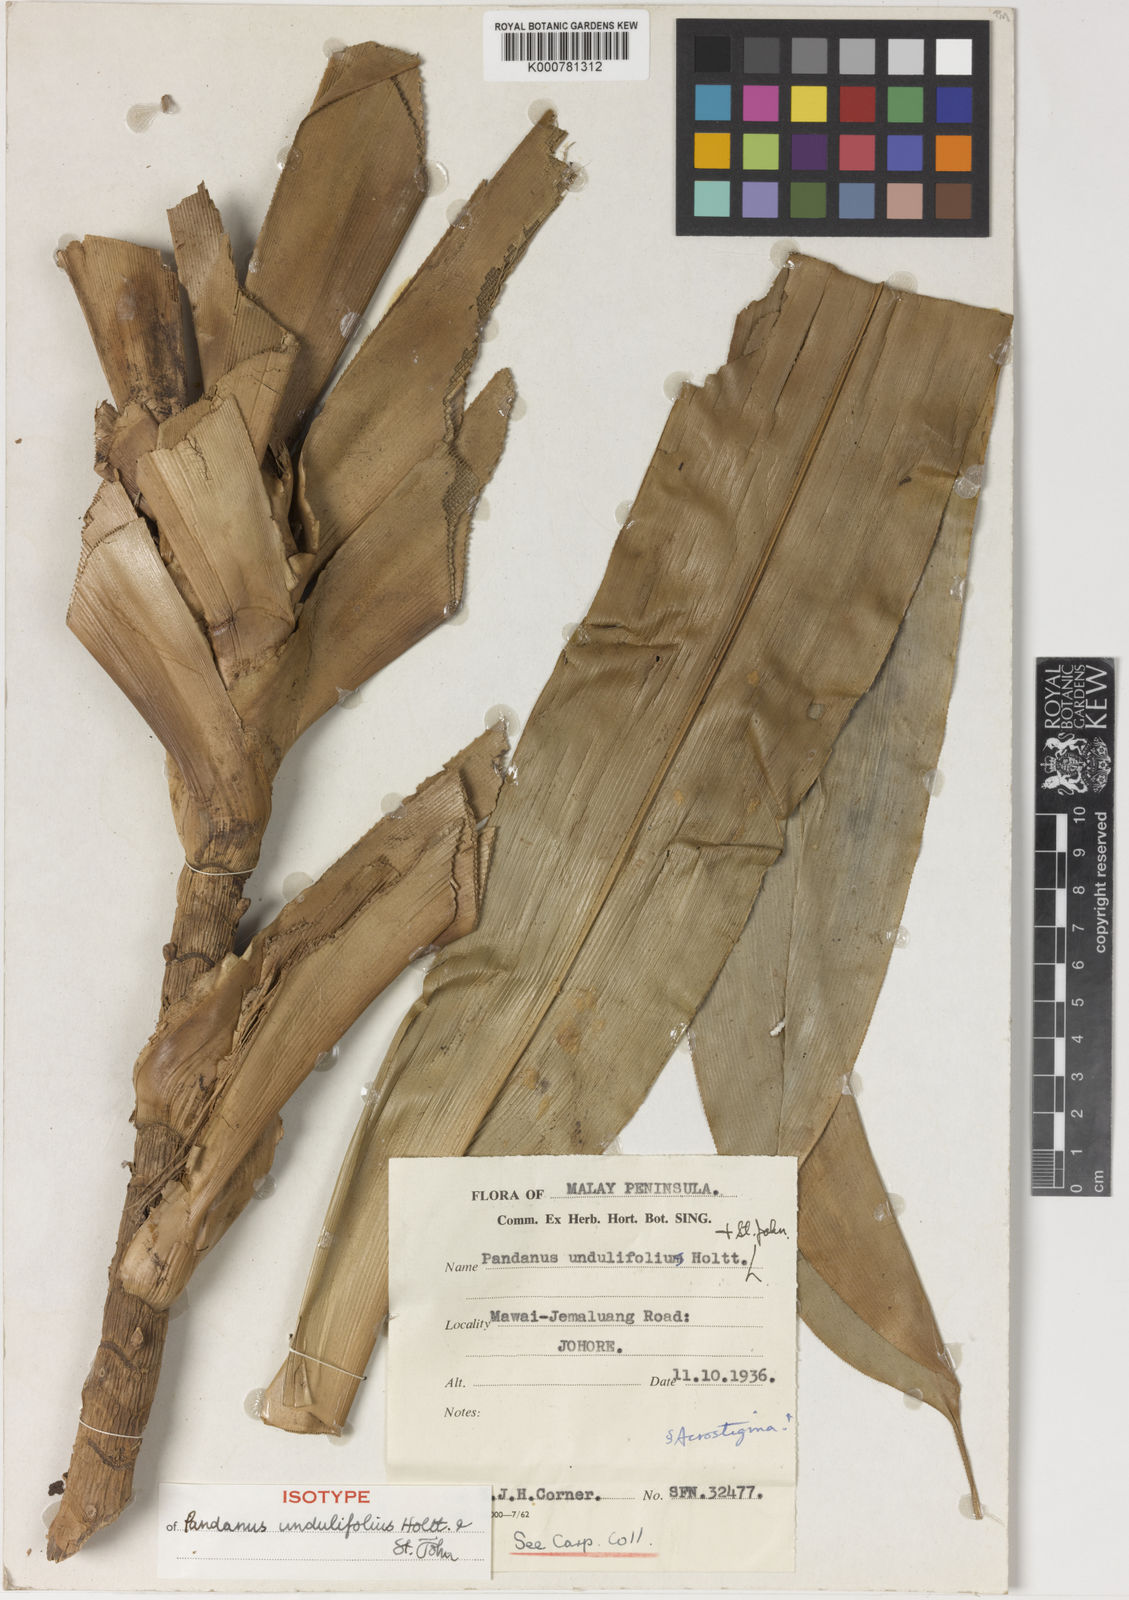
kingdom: Plantae
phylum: Tracheophyta
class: Liliopsida
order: Pandanales
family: Pandanaceae
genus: Benstonea
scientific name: Benstonea undulifolia
